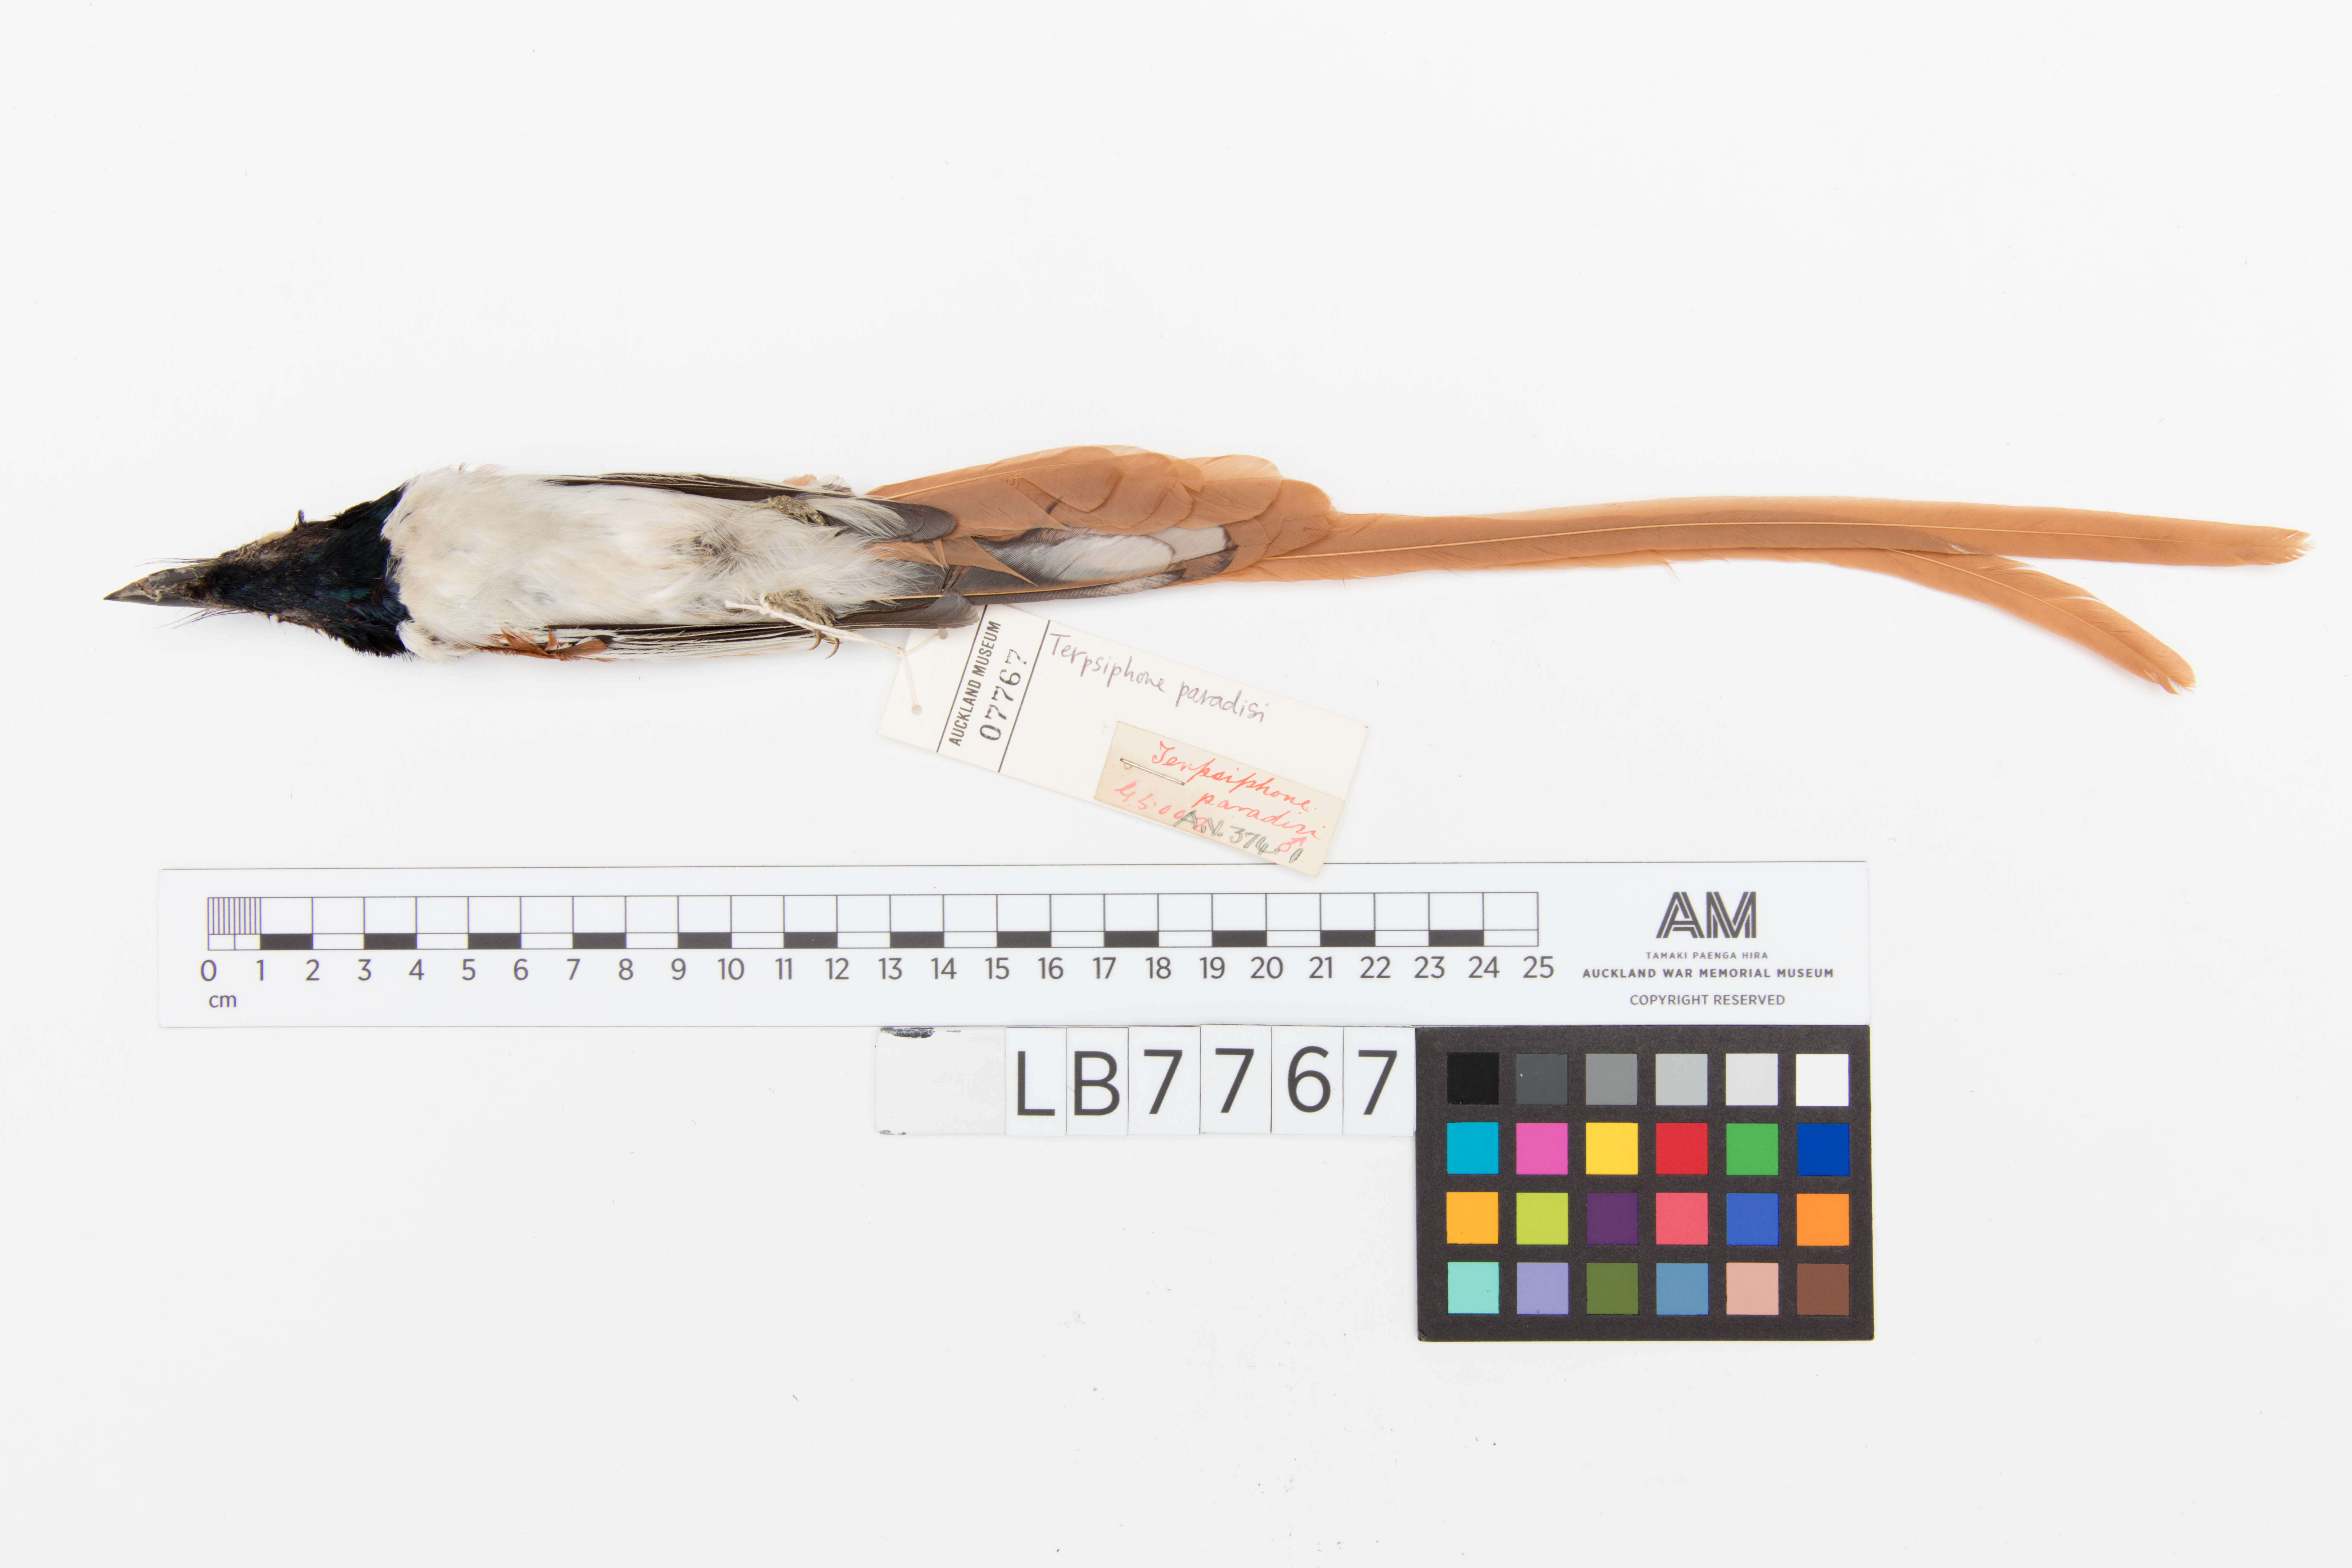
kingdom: Animalia
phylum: Chordata
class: Aves
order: Passeriformes
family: Monarchidae
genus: Terpsiphone
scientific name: Terpsiphone paradisi
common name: Indian paradise flycatcher
